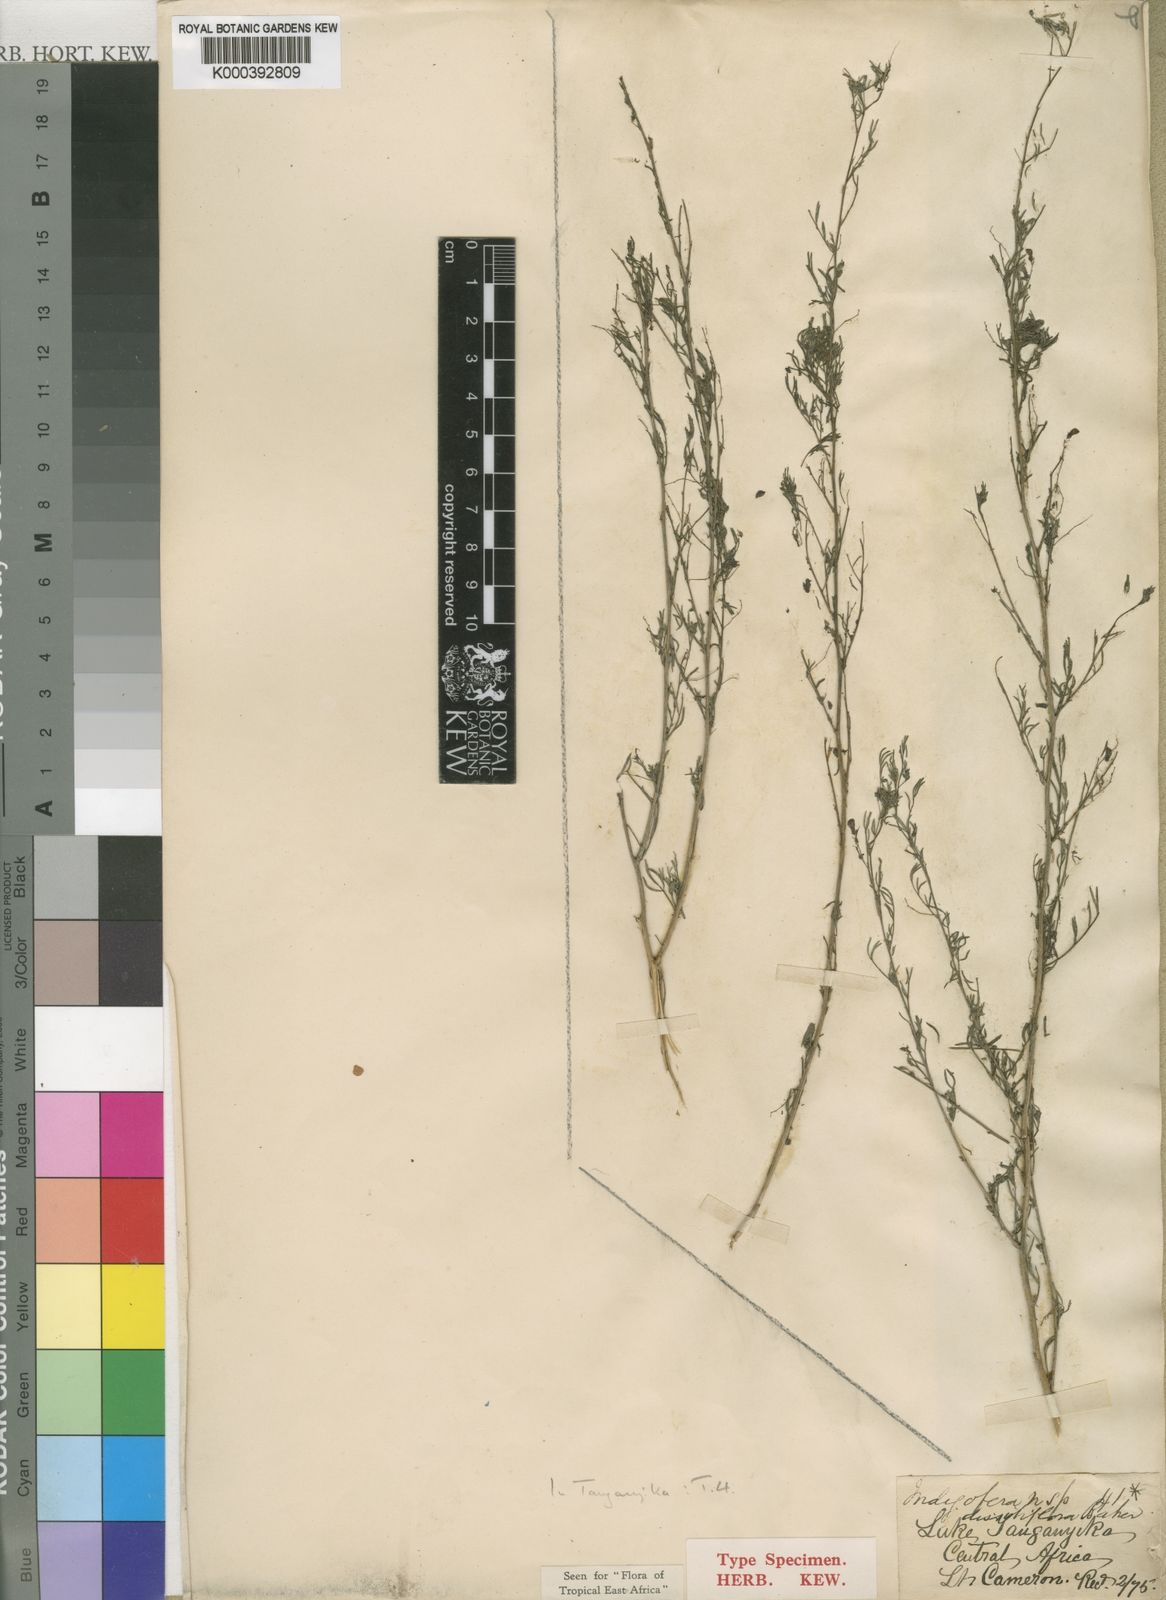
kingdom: Plantae
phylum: Tracheophyta
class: Magnoliopsida
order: Fabales
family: Fabaceae
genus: Indigofera
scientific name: Indigofera dissitiflora
